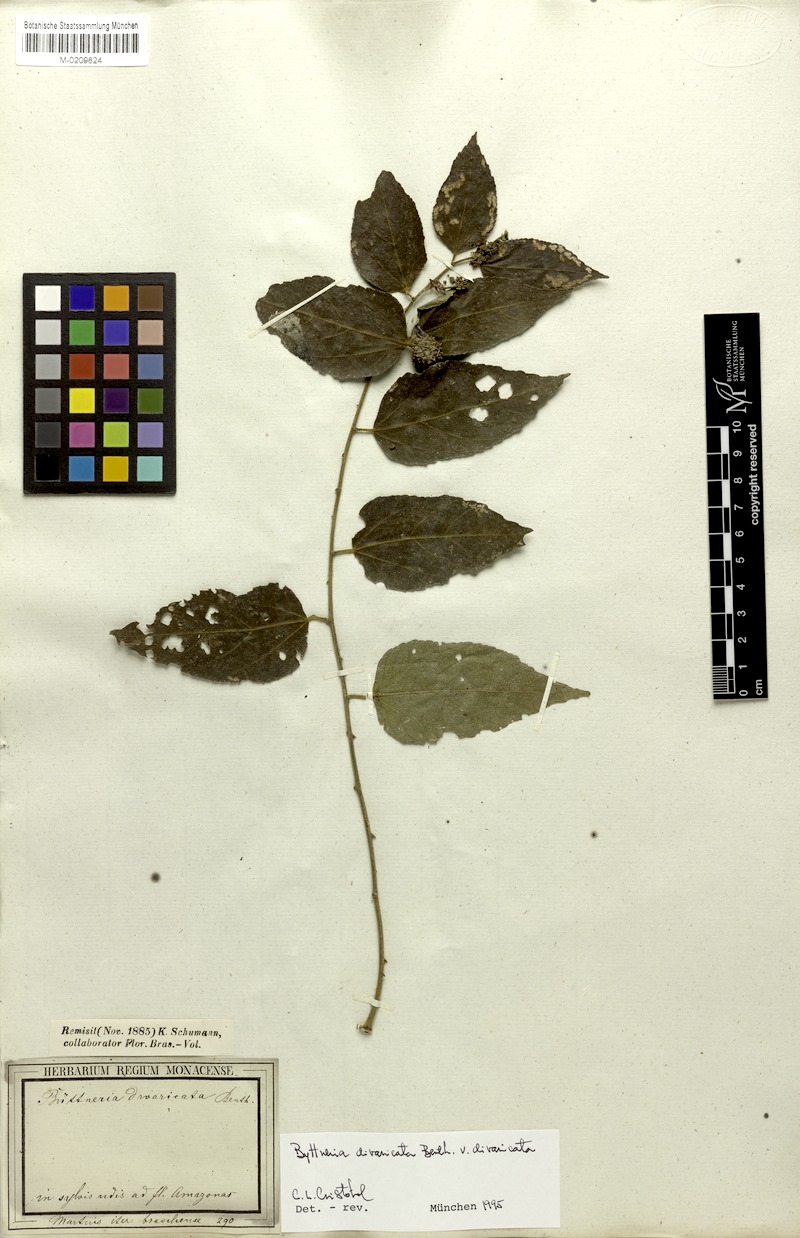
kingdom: Plantae
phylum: Tracheophyta
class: Magnoliopsida
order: Malvales
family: Malvaceae
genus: Byttneria
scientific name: Byttneria divaricata
